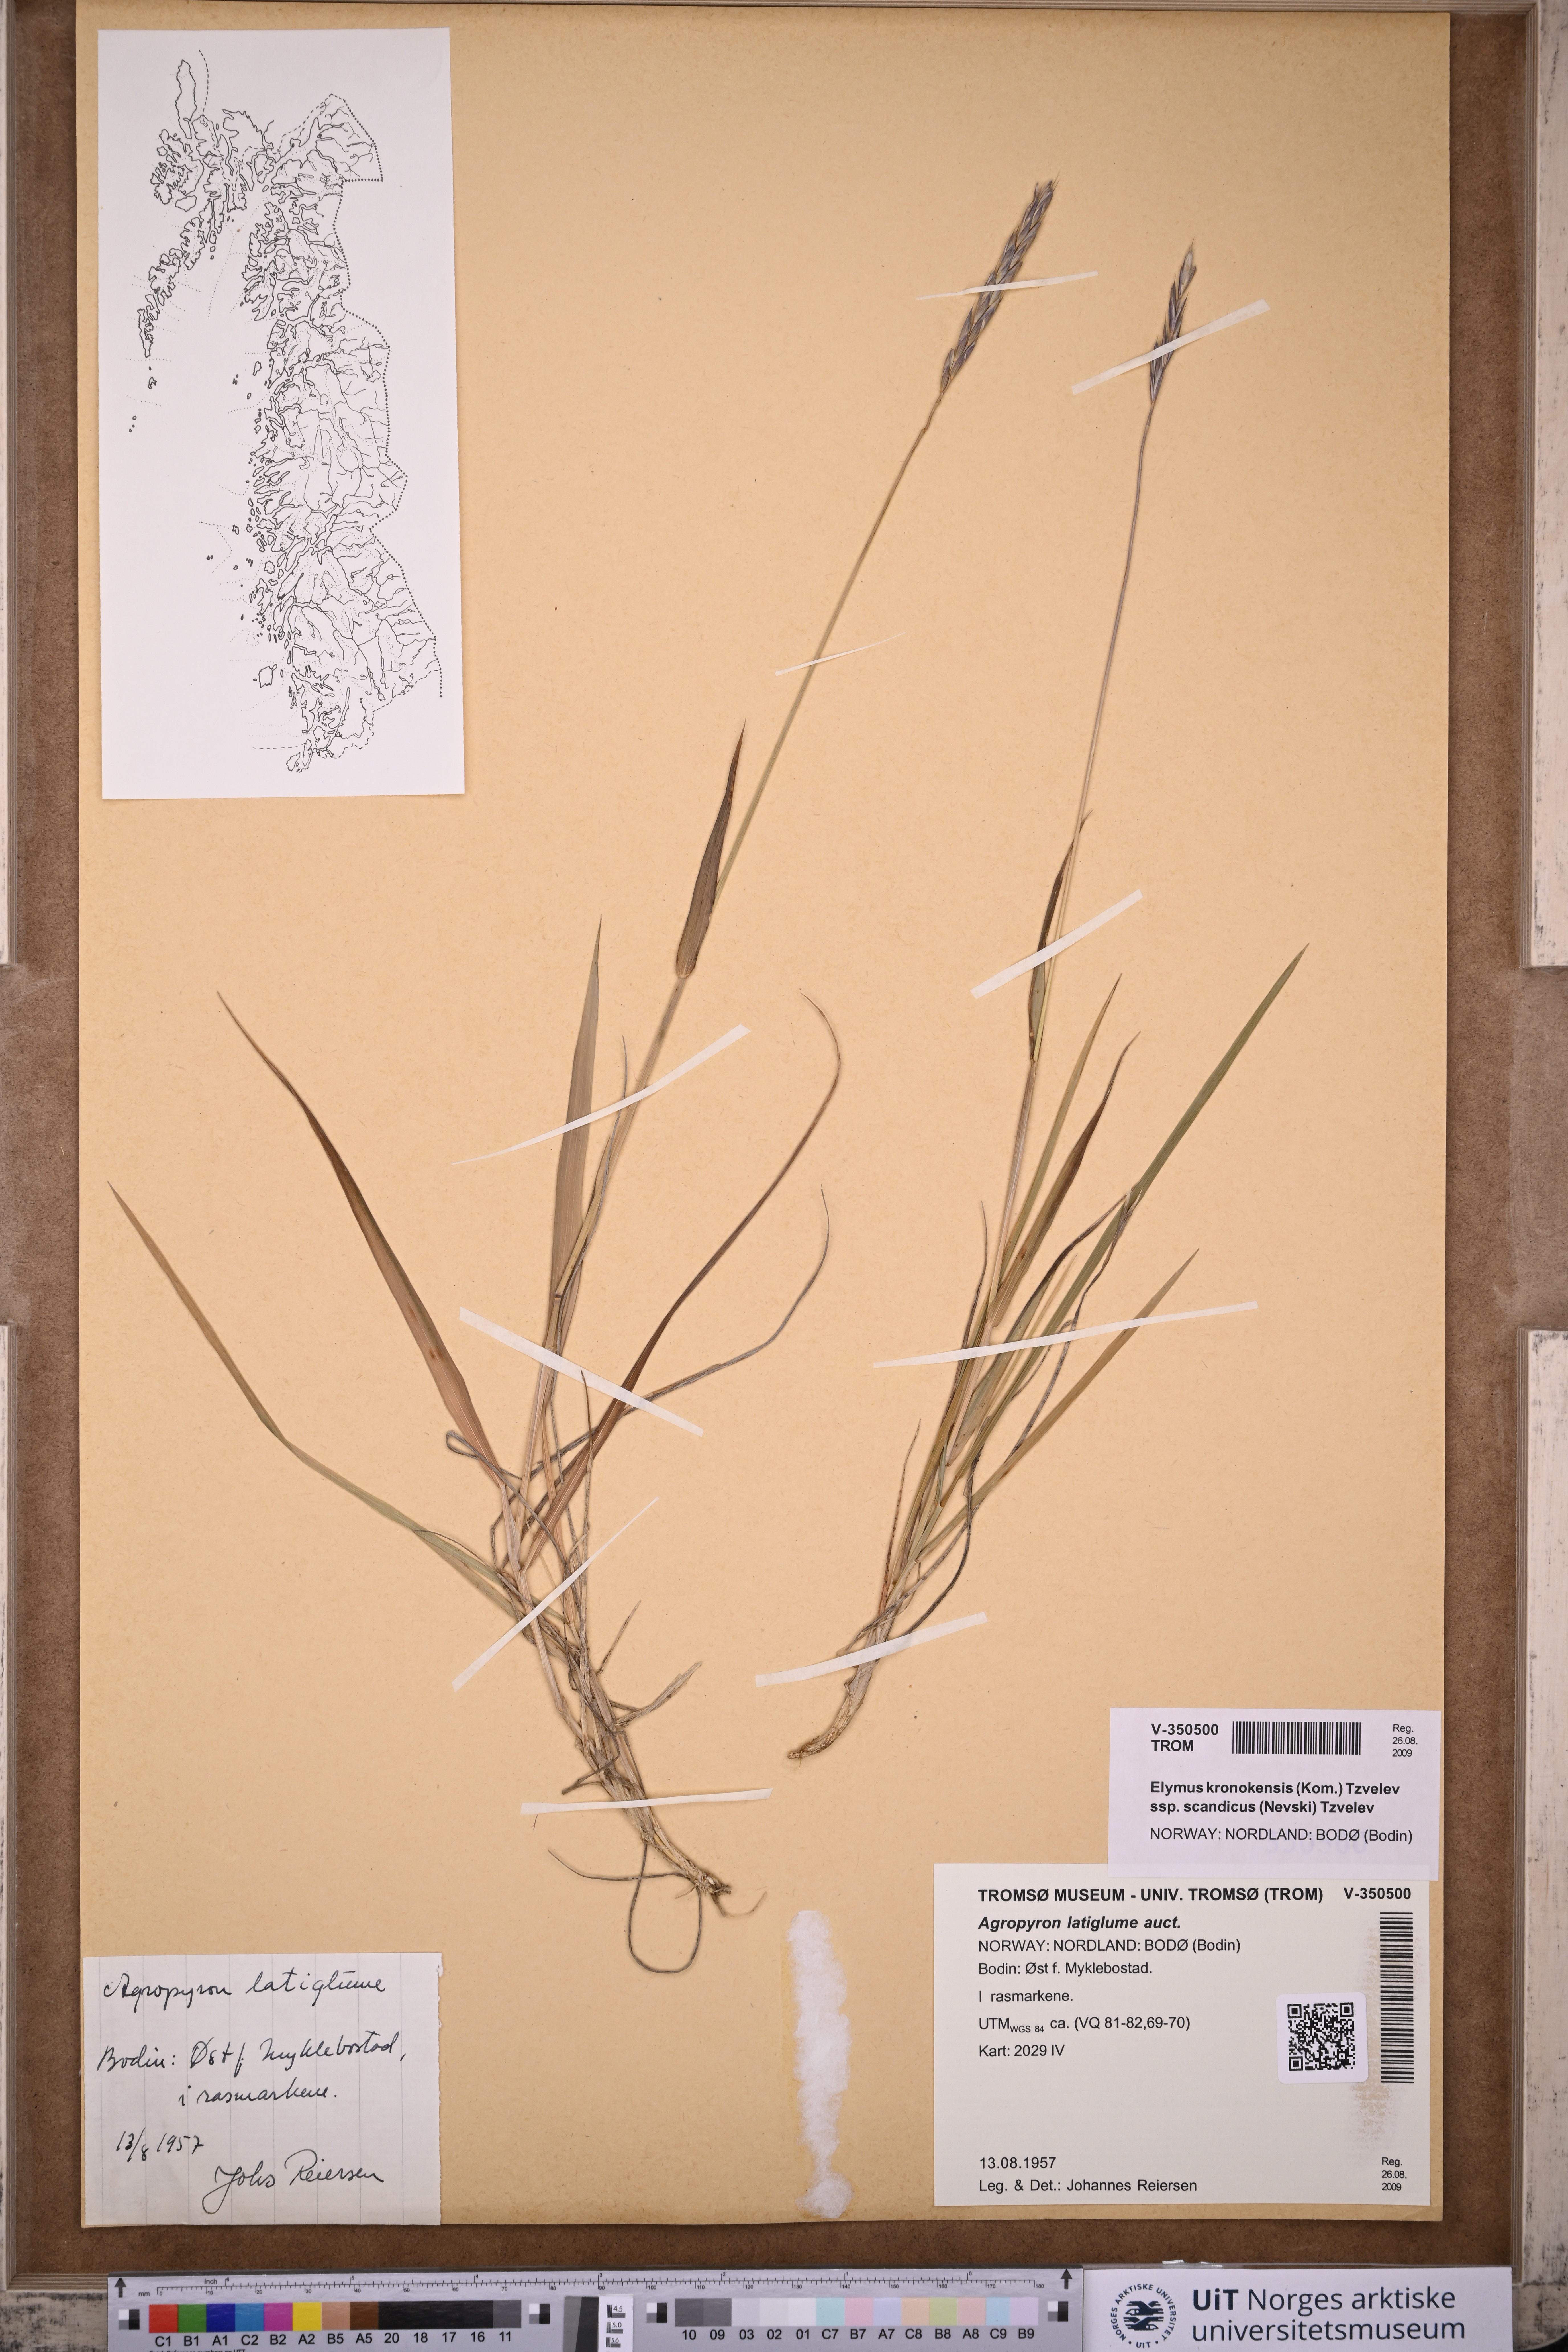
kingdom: Plantae
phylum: Tracheophyta
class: Liliopsida
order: Poales
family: Poaceae
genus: Elymus
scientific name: Elymus macrourus
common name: Northern wheatgrass
